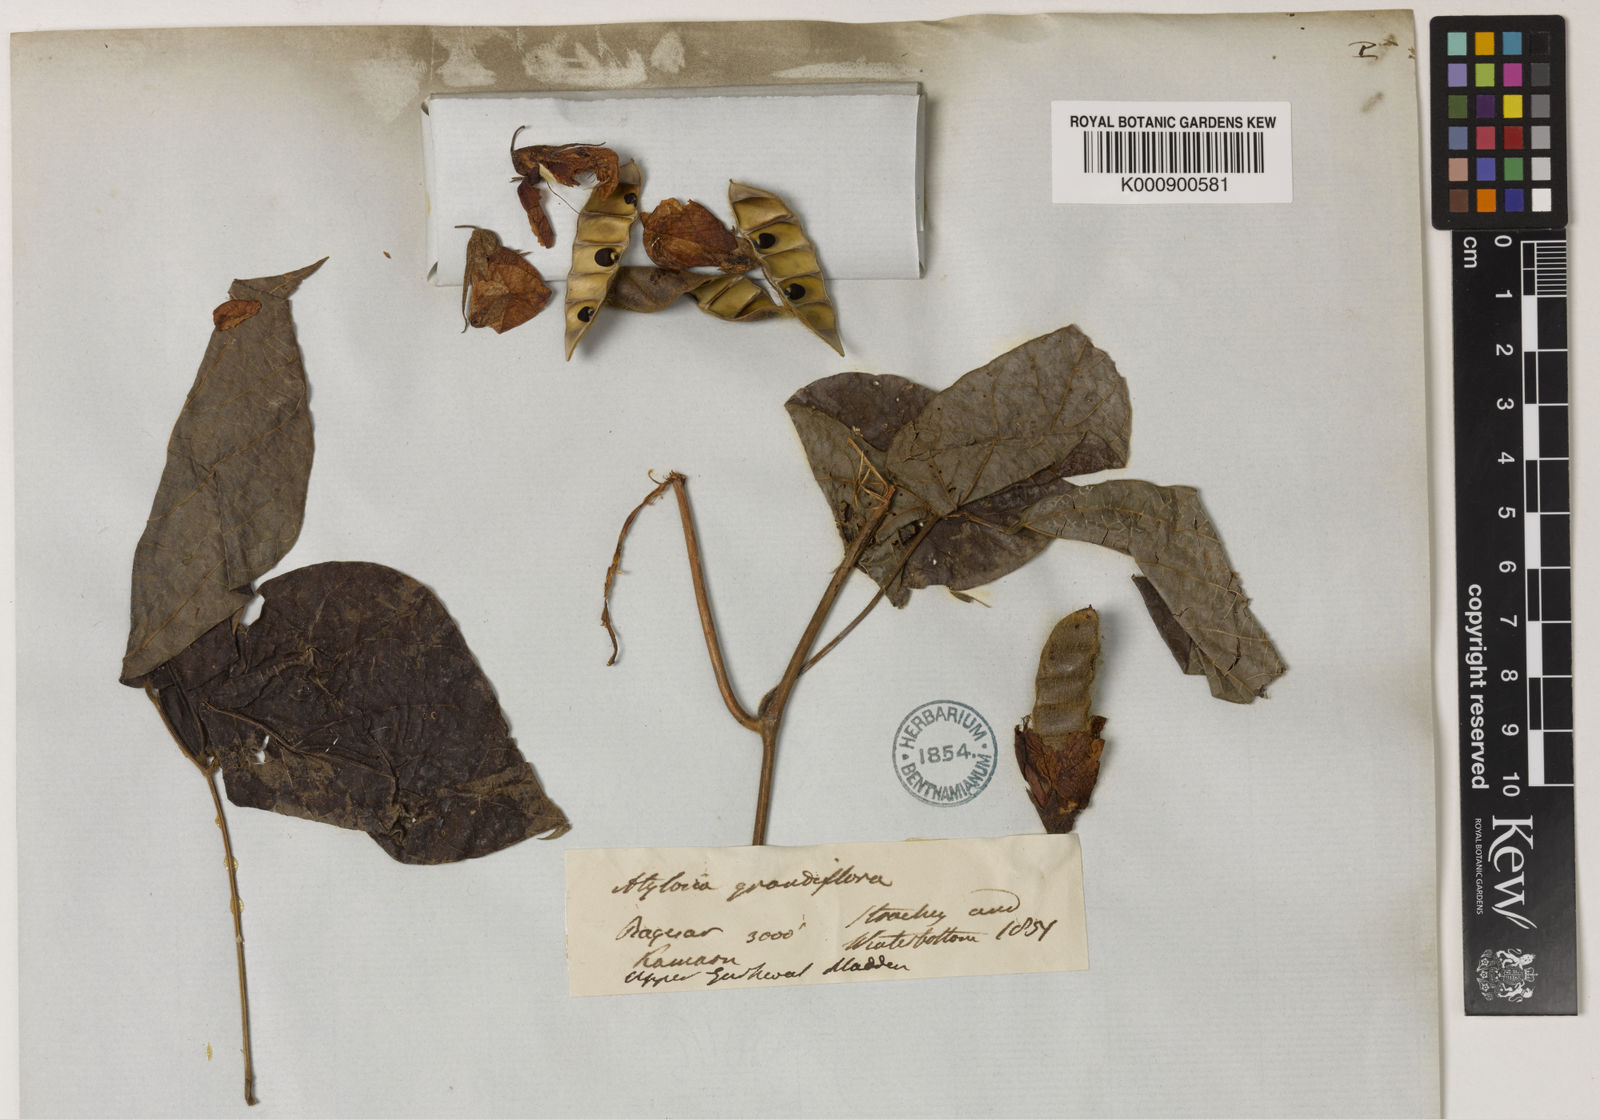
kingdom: Plantae
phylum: Tracheophyta
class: Magnoliopsida
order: Fabales
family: Fabaceae
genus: Cajanus
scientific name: Cajanus grandiflorus
